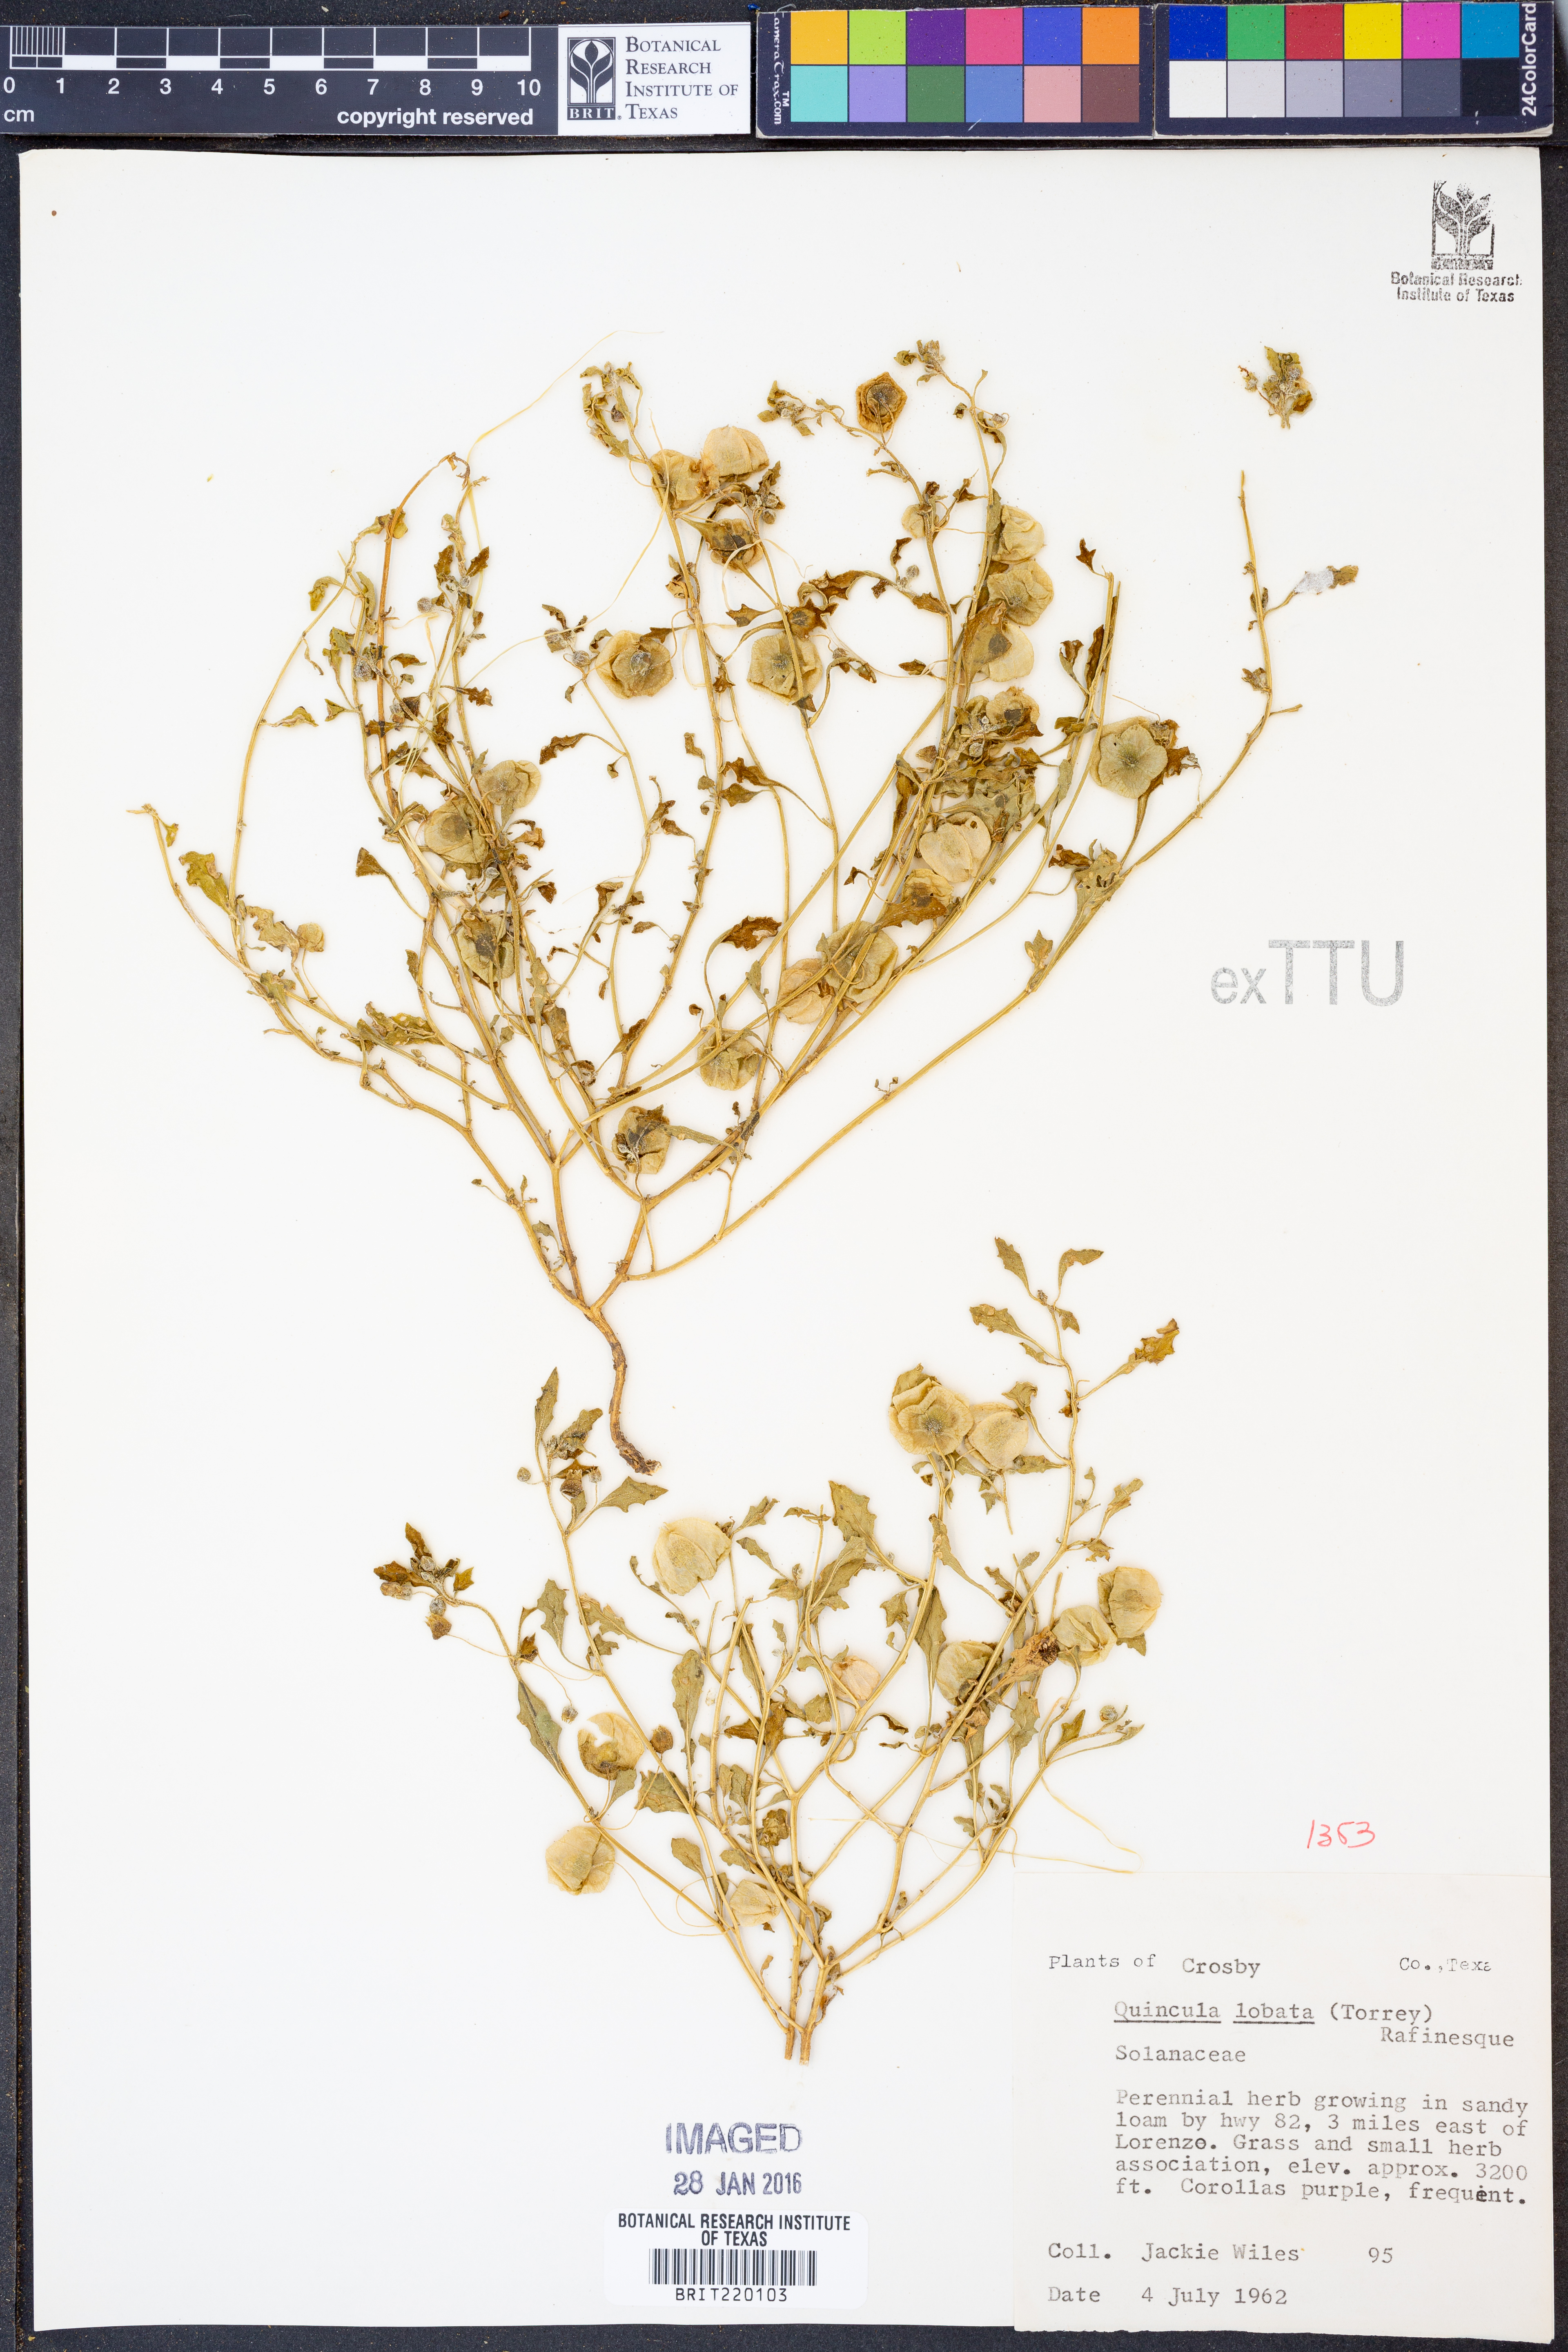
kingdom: Plantae
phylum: Tracheophyta
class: Magnoliopsida
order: Solanales
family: Solanaceae
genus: Quincula
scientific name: Quincula lobata
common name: Purple-ground-cherry
